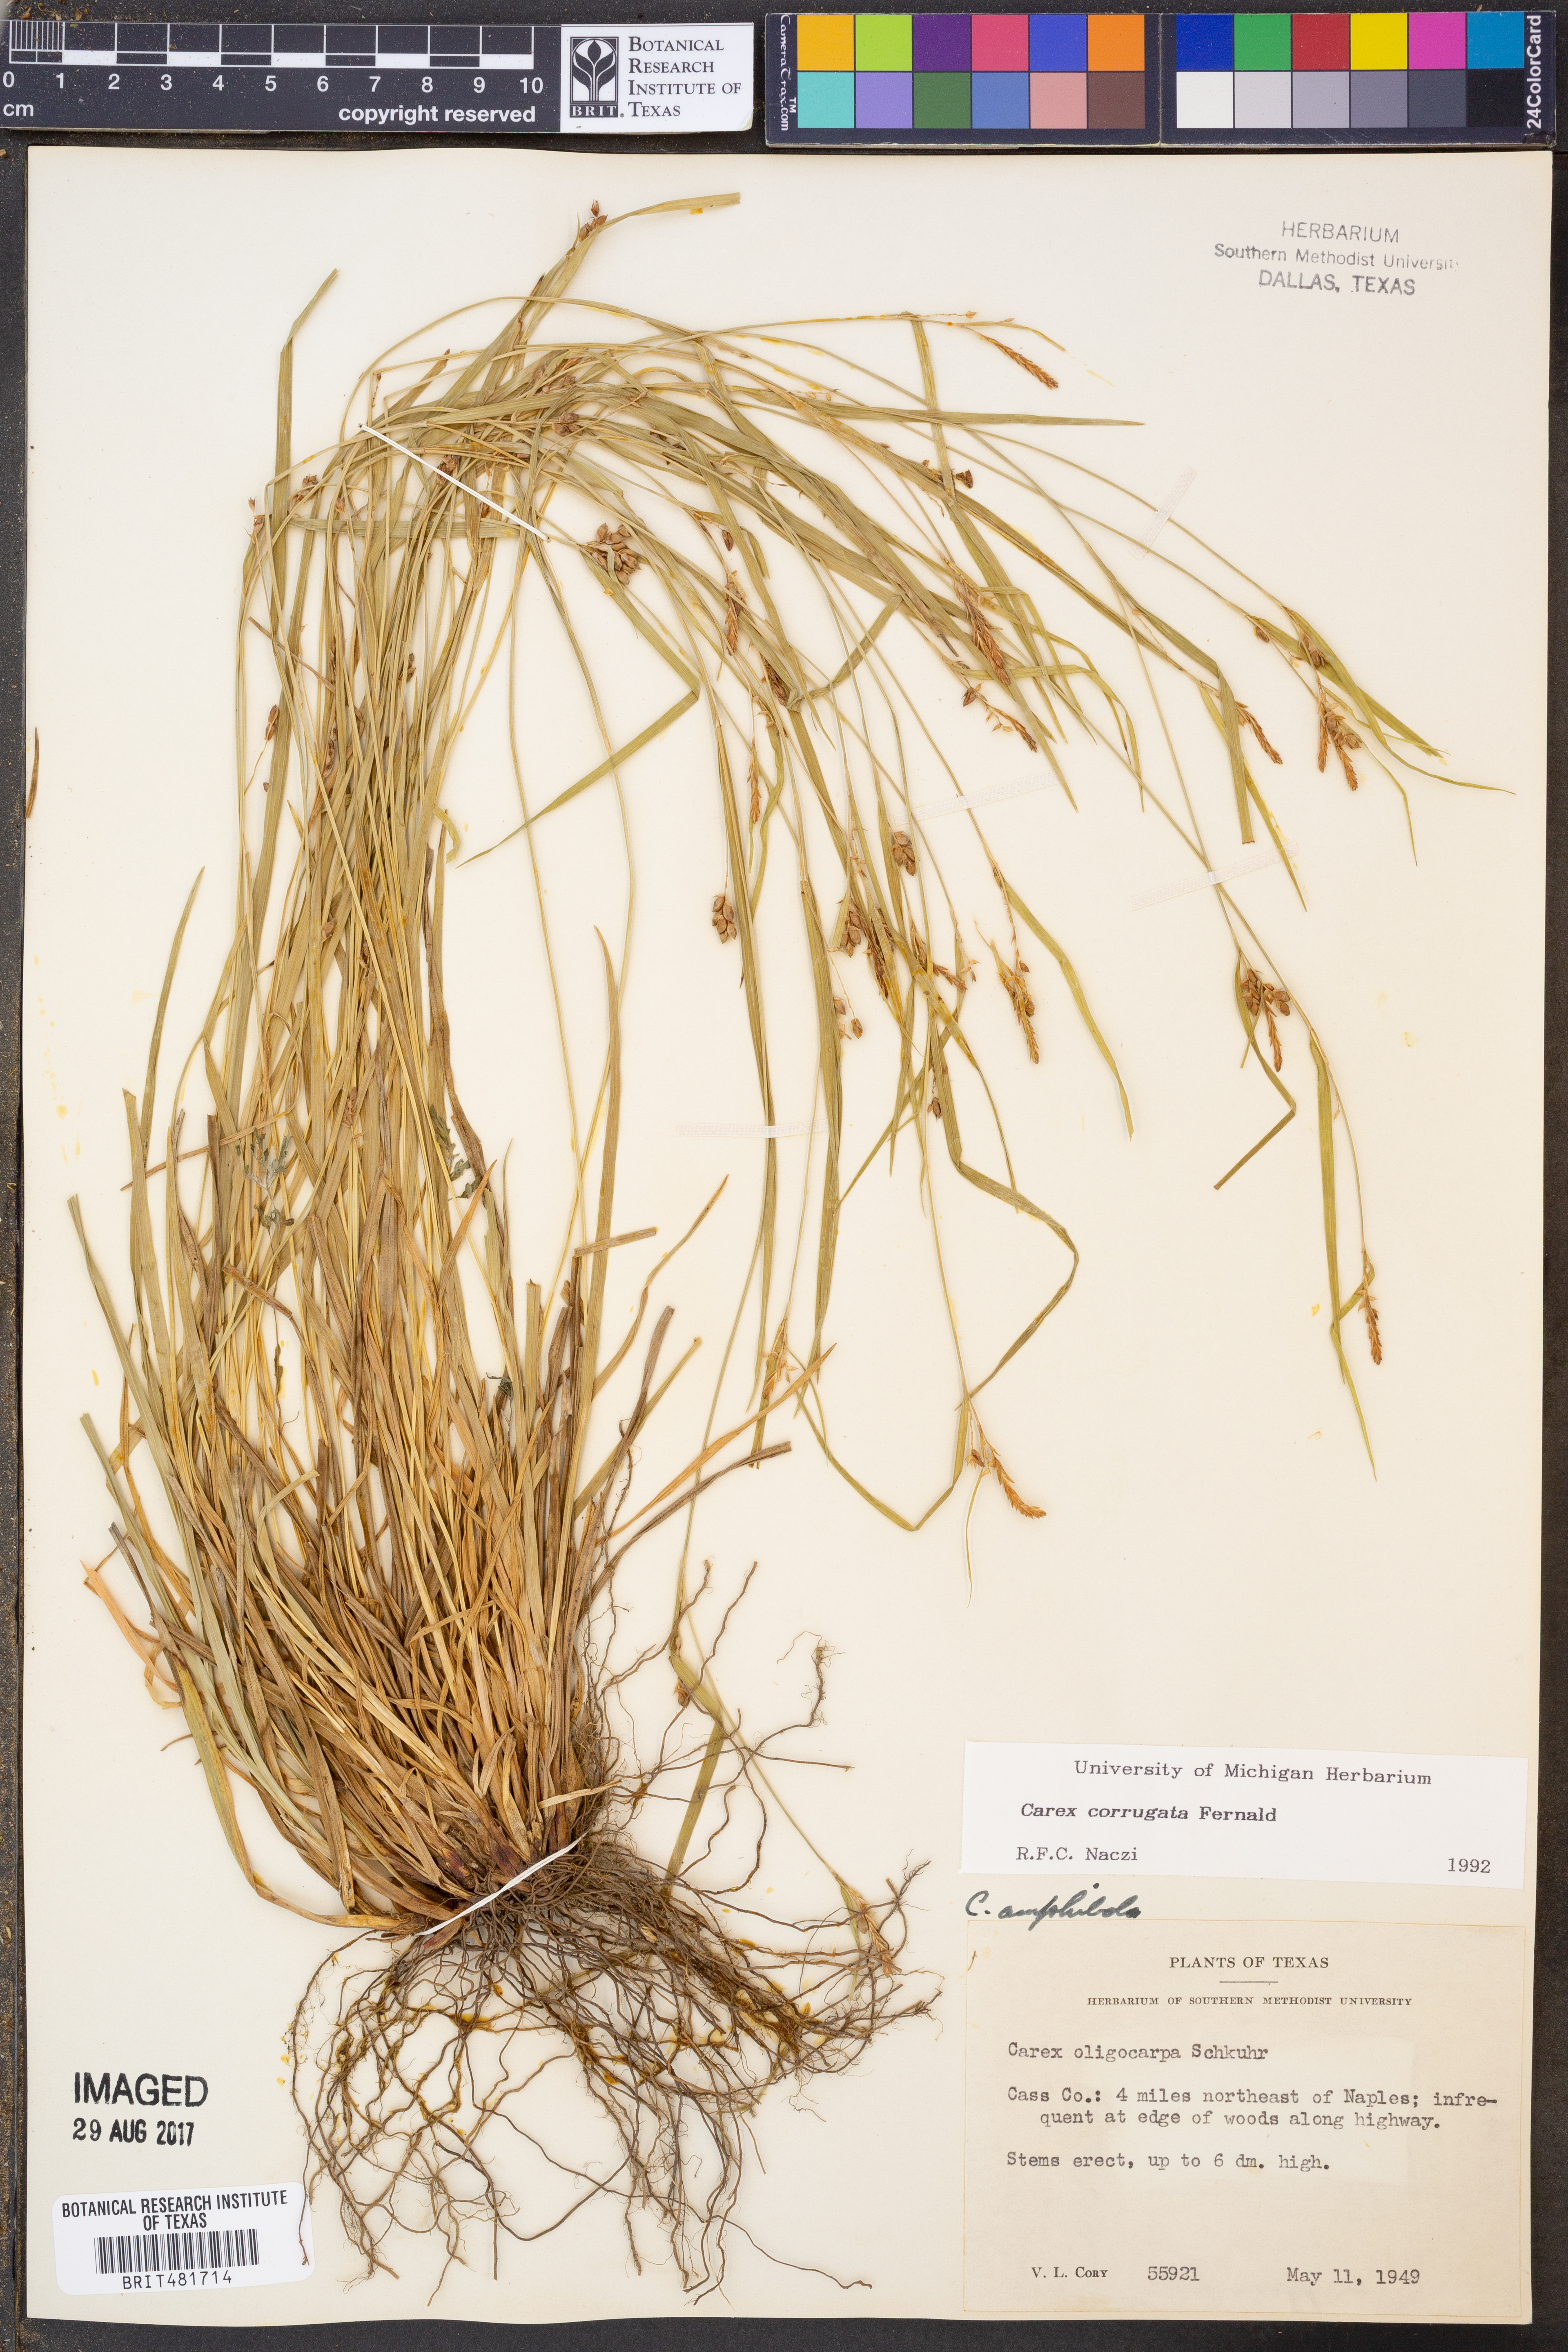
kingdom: Plantae
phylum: Tracheophyta
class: Liliopsida
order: Poales
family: Cyperaceae
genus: Carex
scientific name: Carex corrugata
